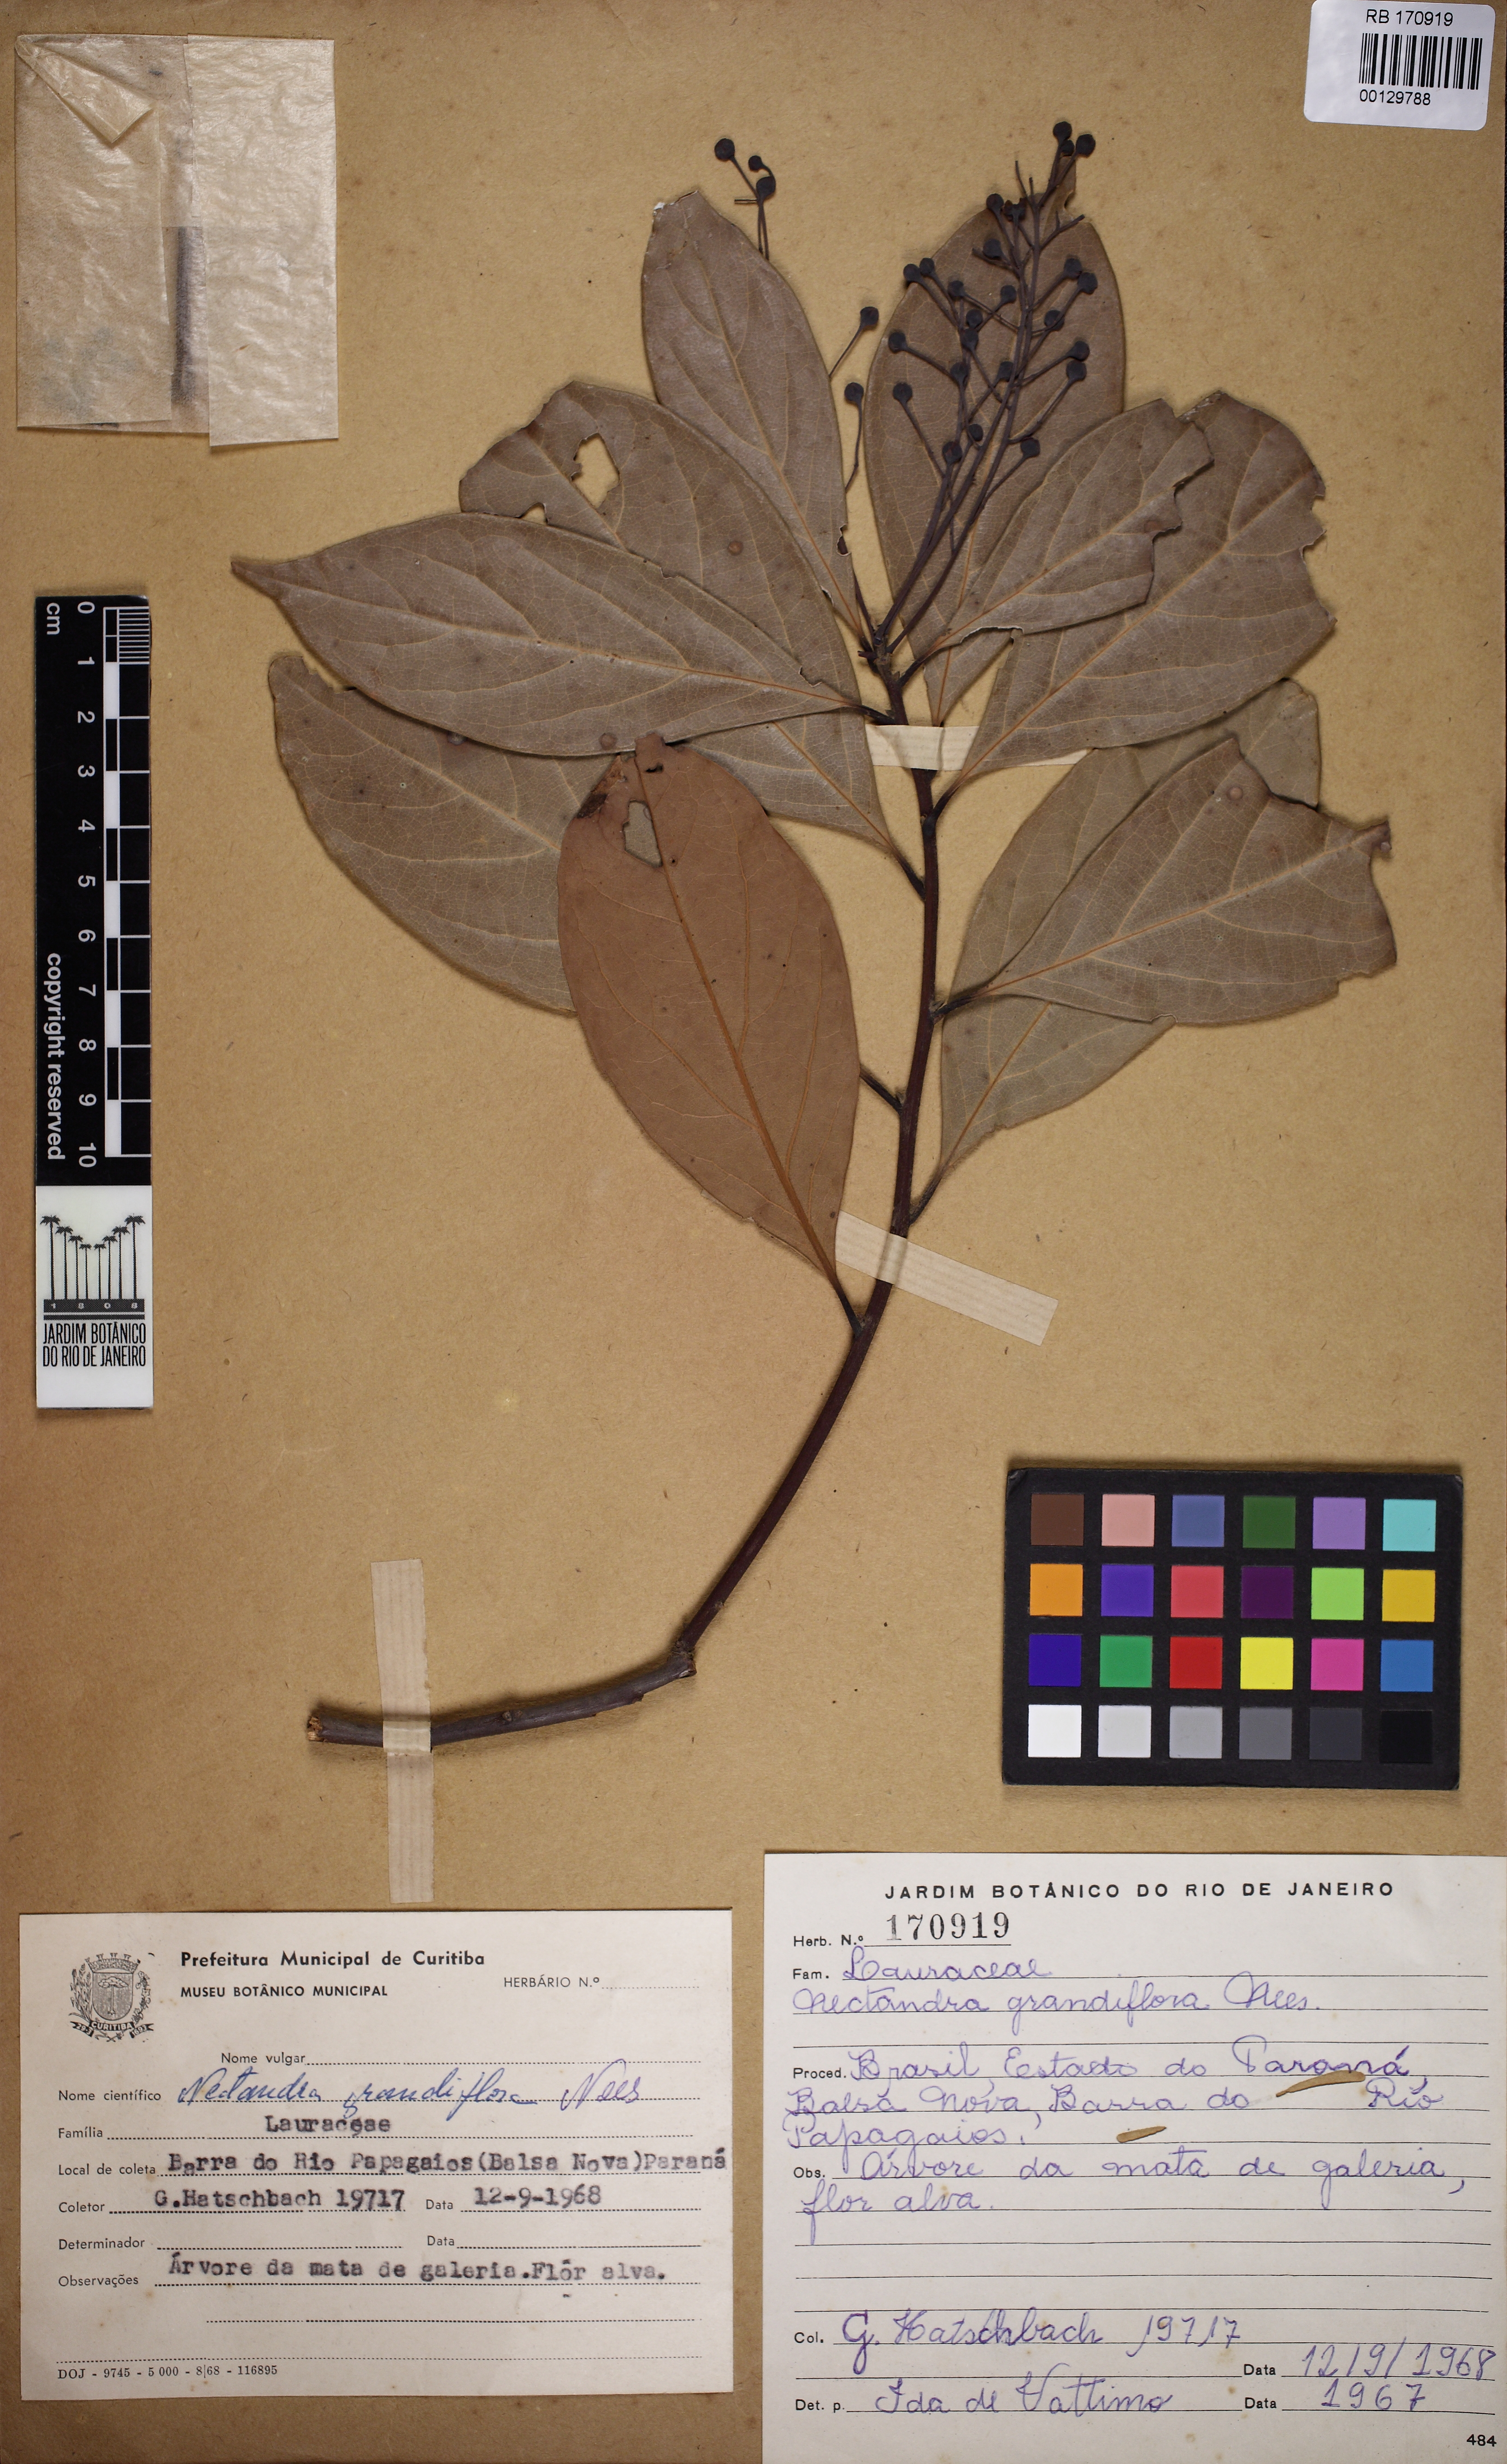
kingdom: Plantae
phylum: Tracheophyta
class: Magnoliopsida
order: Laurales
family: Lauraceae
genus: Nectandra
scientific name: Nectandra grandiflora
